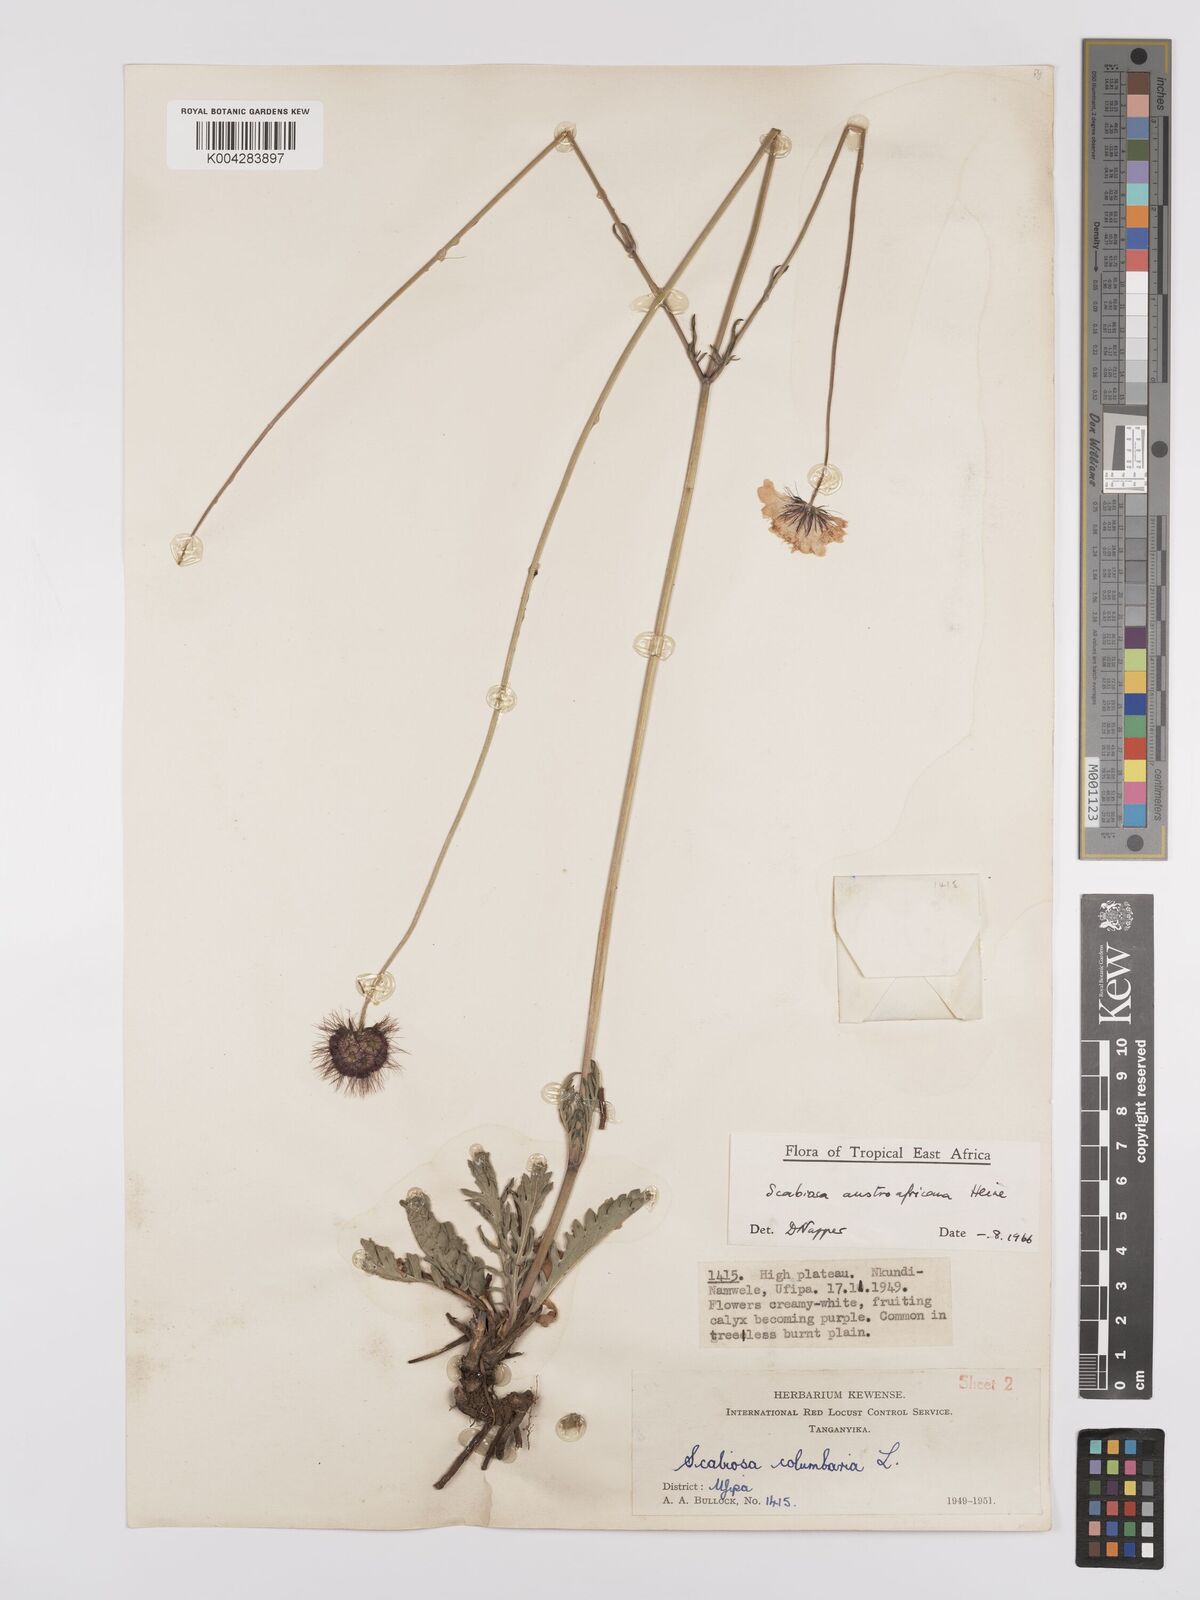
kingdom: Plantae
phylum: Tracheophyta
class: Magnoliopsida
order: Dipsacales
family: Caprifoliaceae
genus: Scabiosa
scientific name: Scabiosa austroafricana
